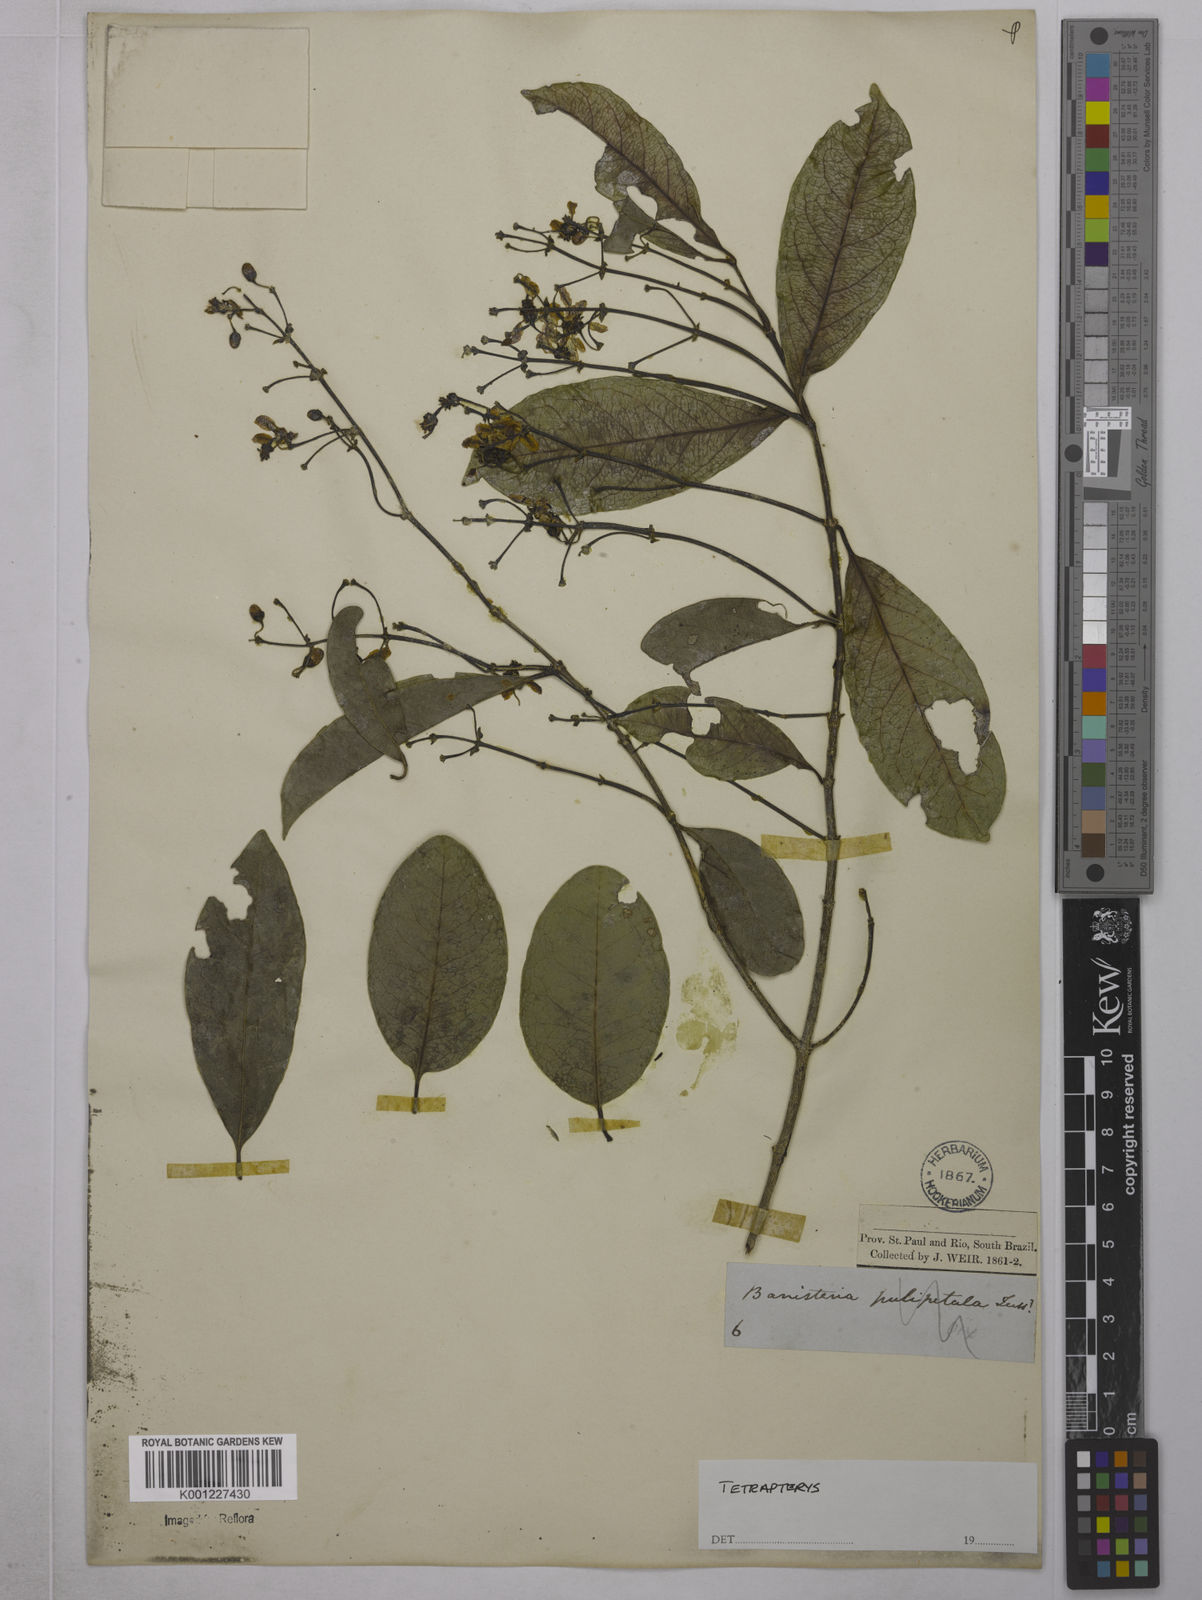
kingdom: Plantae
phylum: Tracheophyta
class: Magnoliopsida
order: Malpighiales
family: Malpighiaceae
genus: Tetrapterys
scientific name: Tetrapterys
